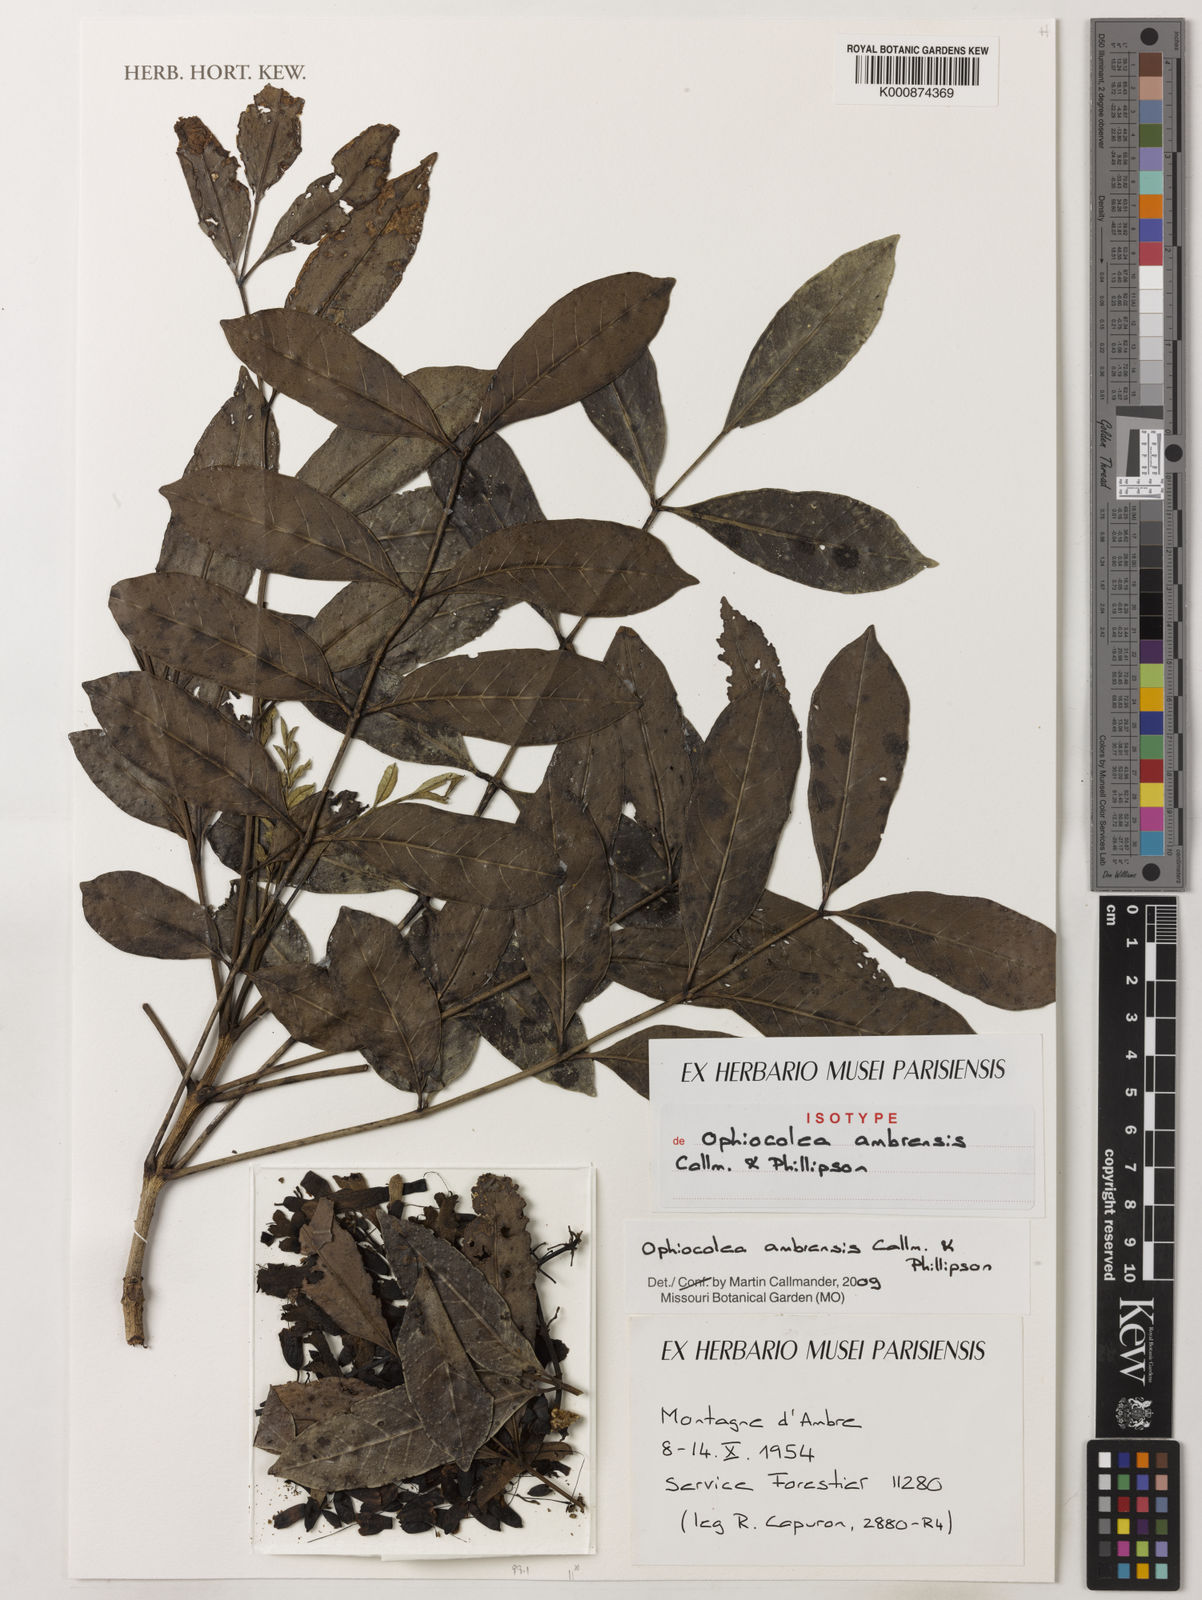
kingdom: Plantae
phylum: Tracheophyta
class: Magnoliopsida
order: Lamiales
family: Bignoniaceae
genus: Colea
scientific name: Colea ambrensis
